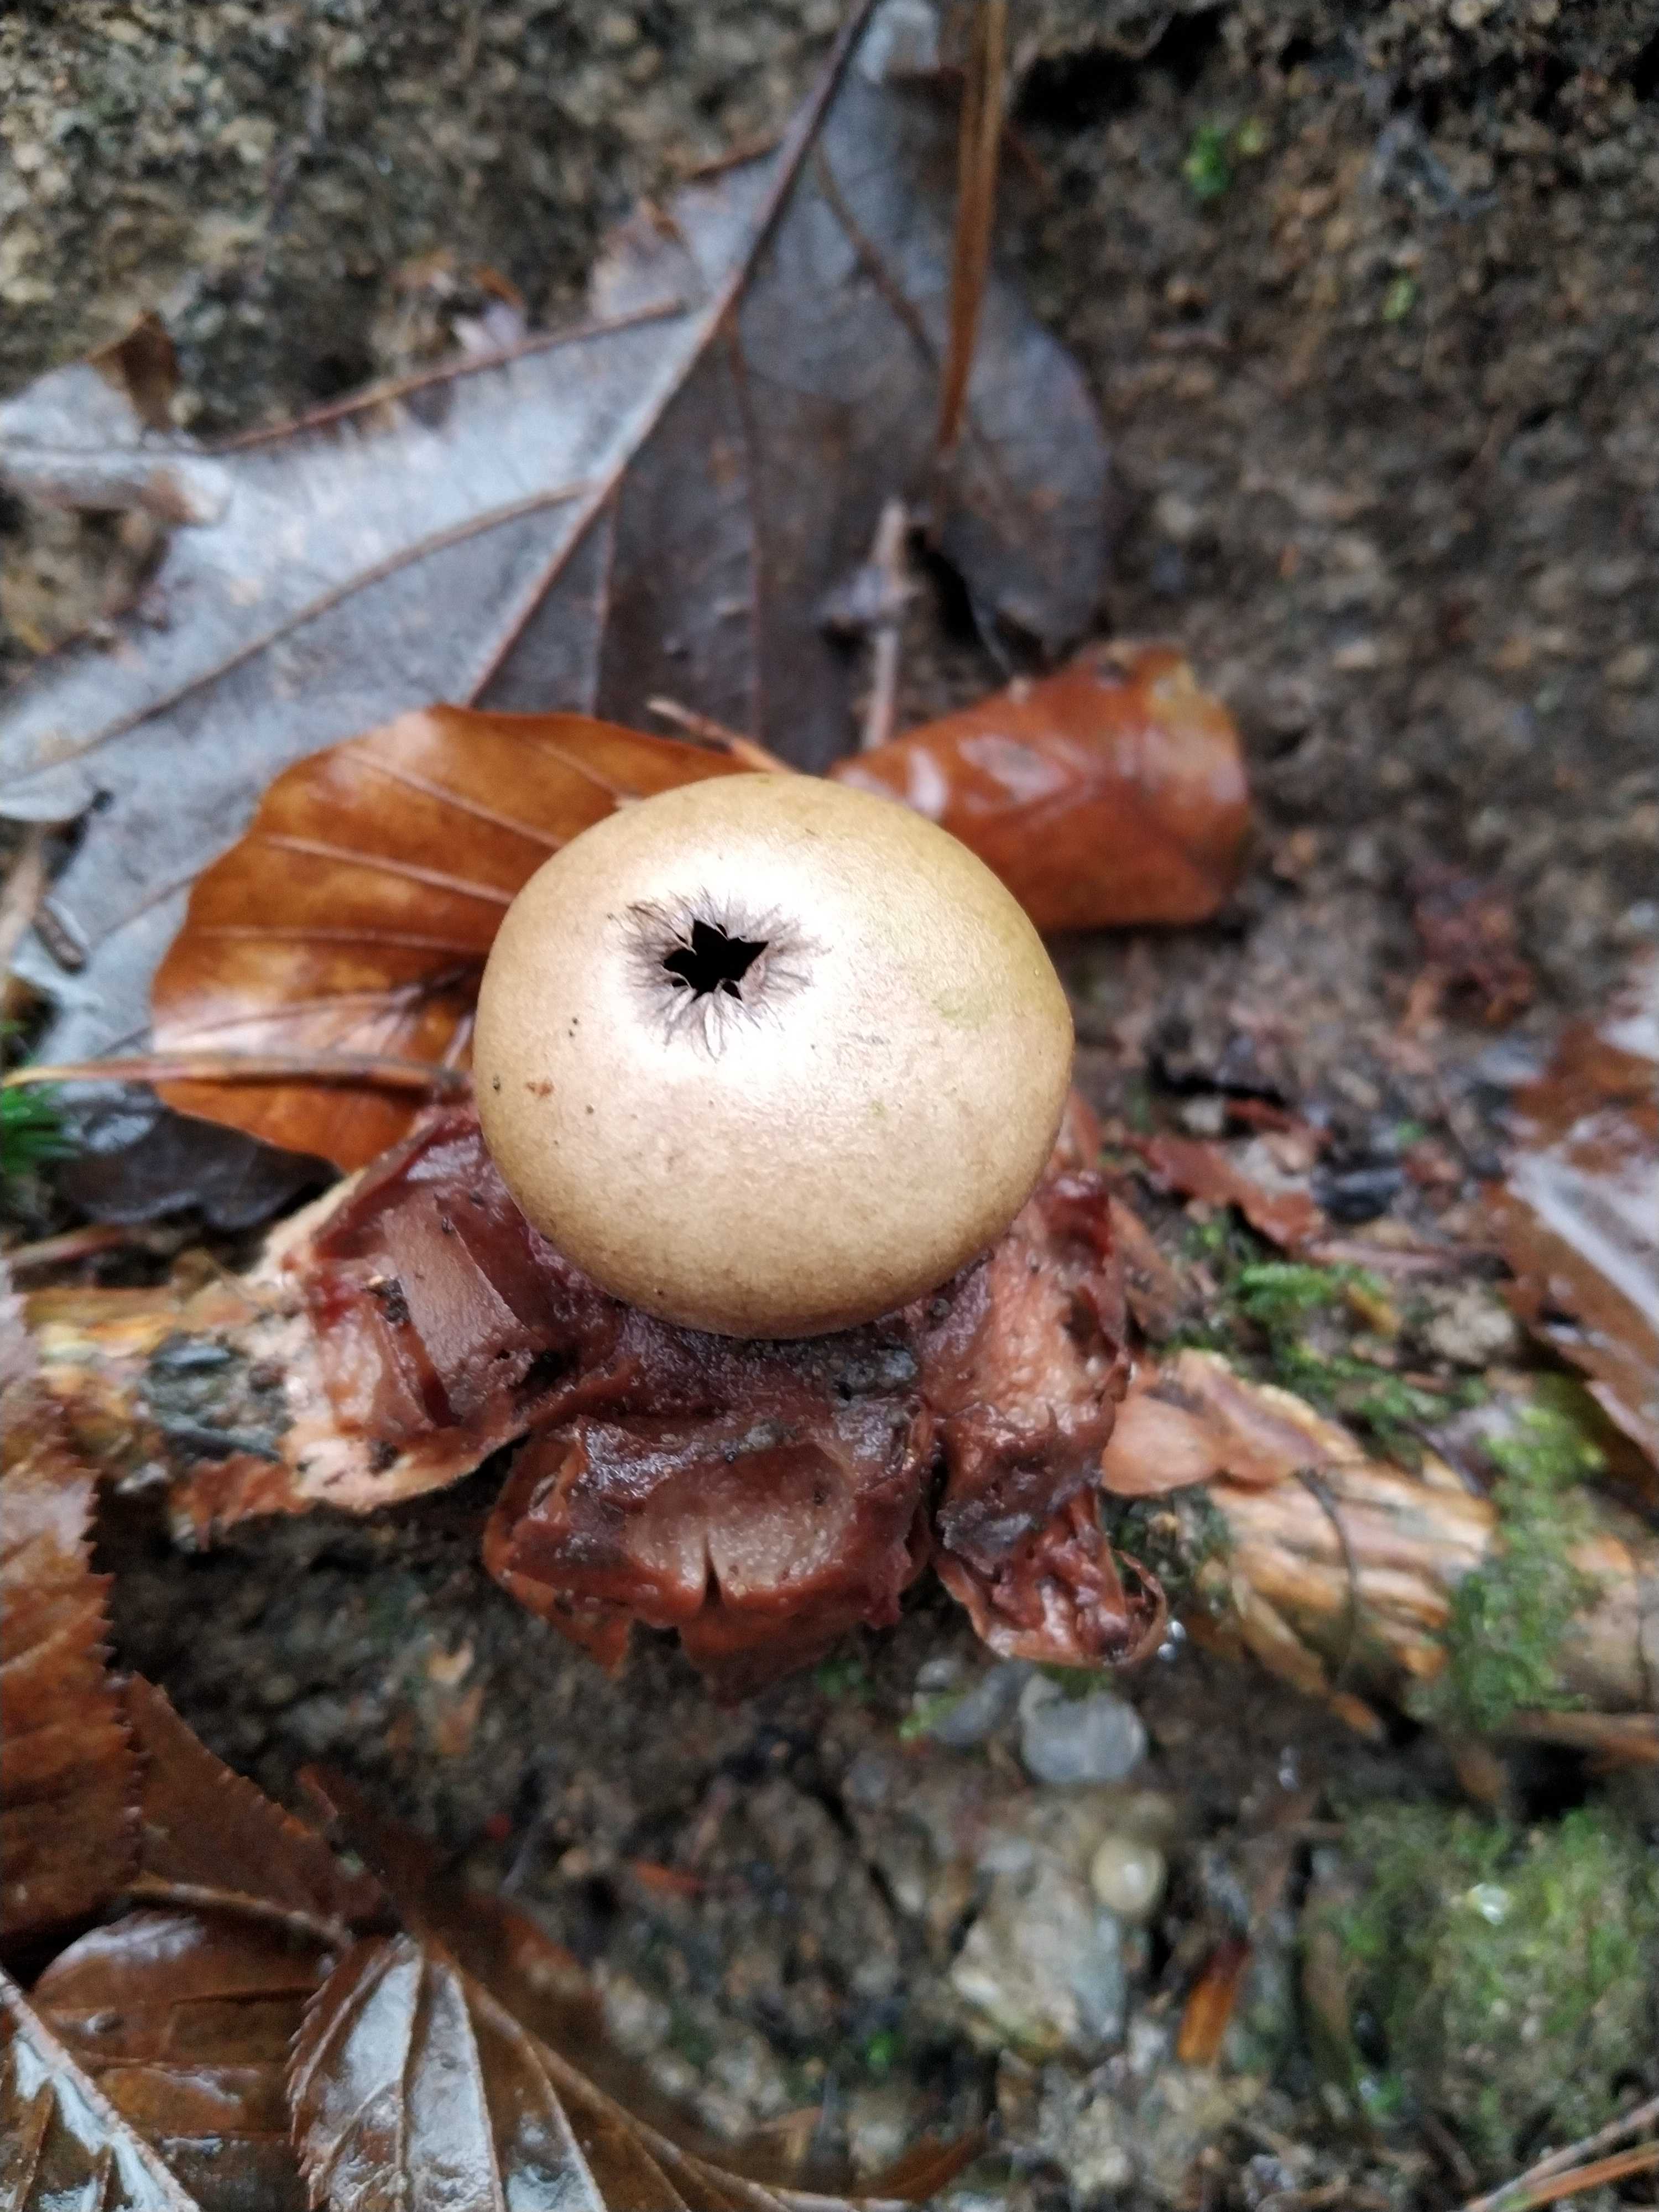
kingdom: Fungi
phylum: Basidiomycota
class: Agaricomycetes
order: Geastrales
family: Geastraceae
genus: Geastrum
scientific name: Geastrum
